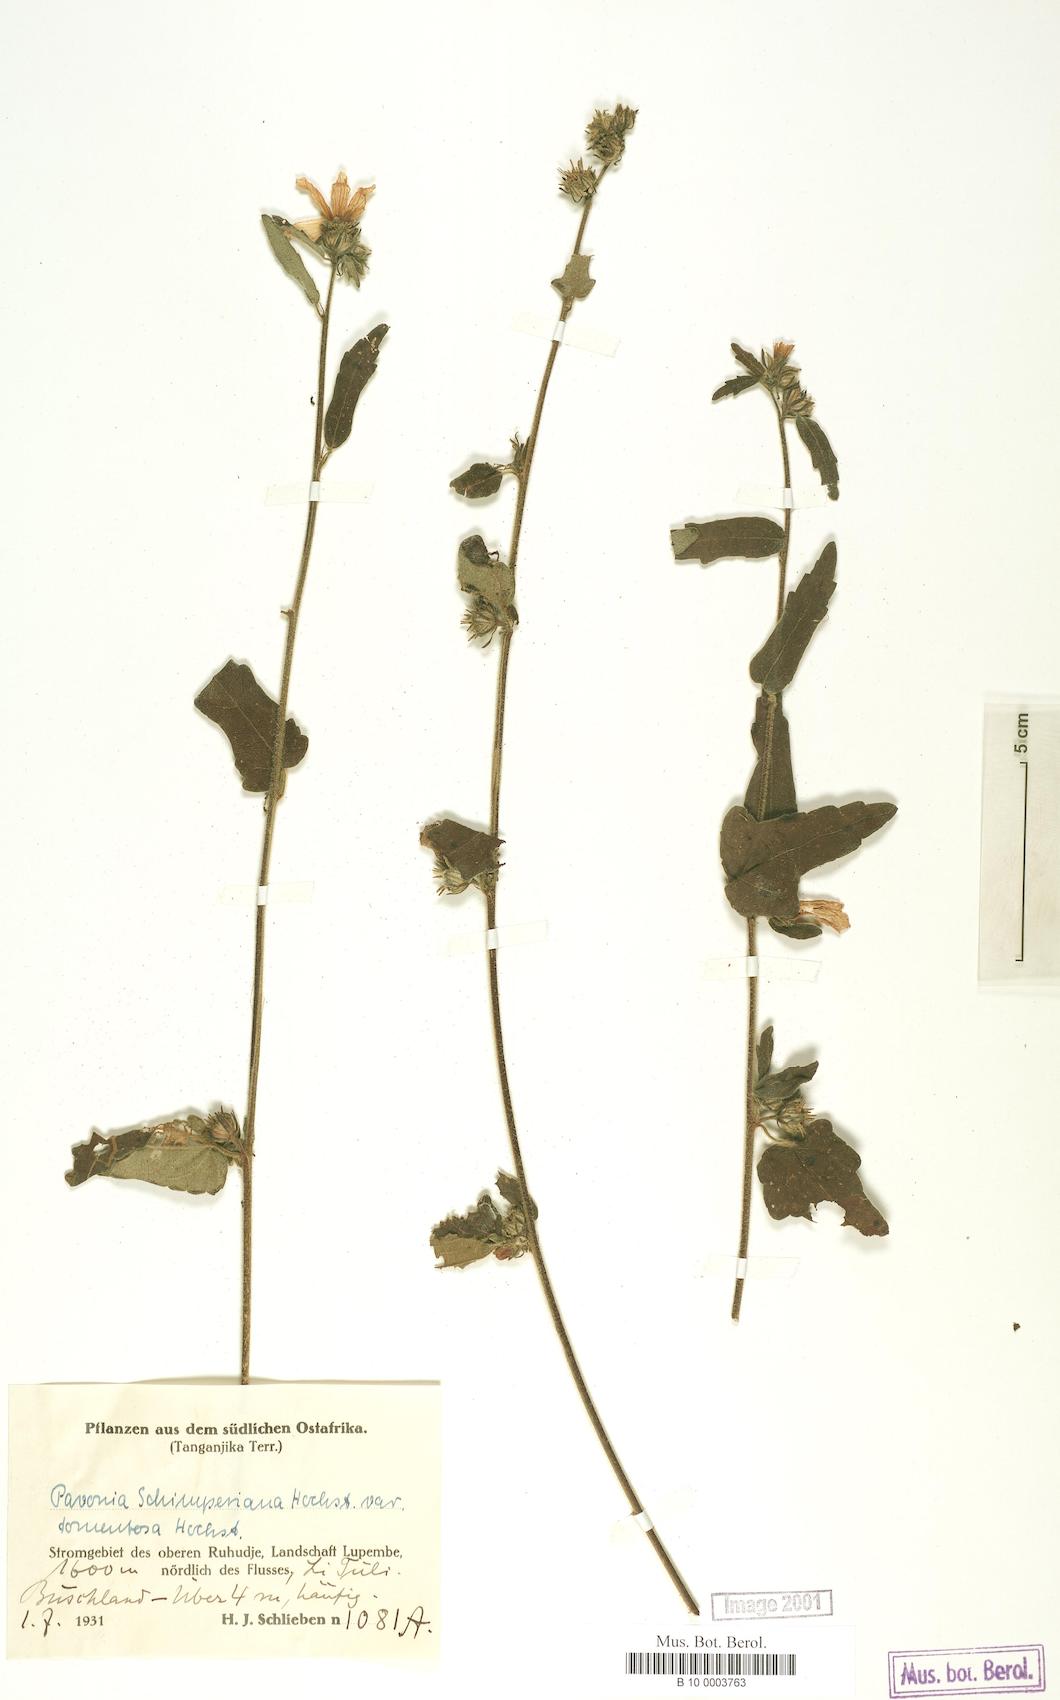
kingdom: Plantae
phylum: Tracheophyta
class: Magnoliopsida
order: Malvales
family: Malvaceae
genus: Pavonia
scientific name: Pavonia urens
